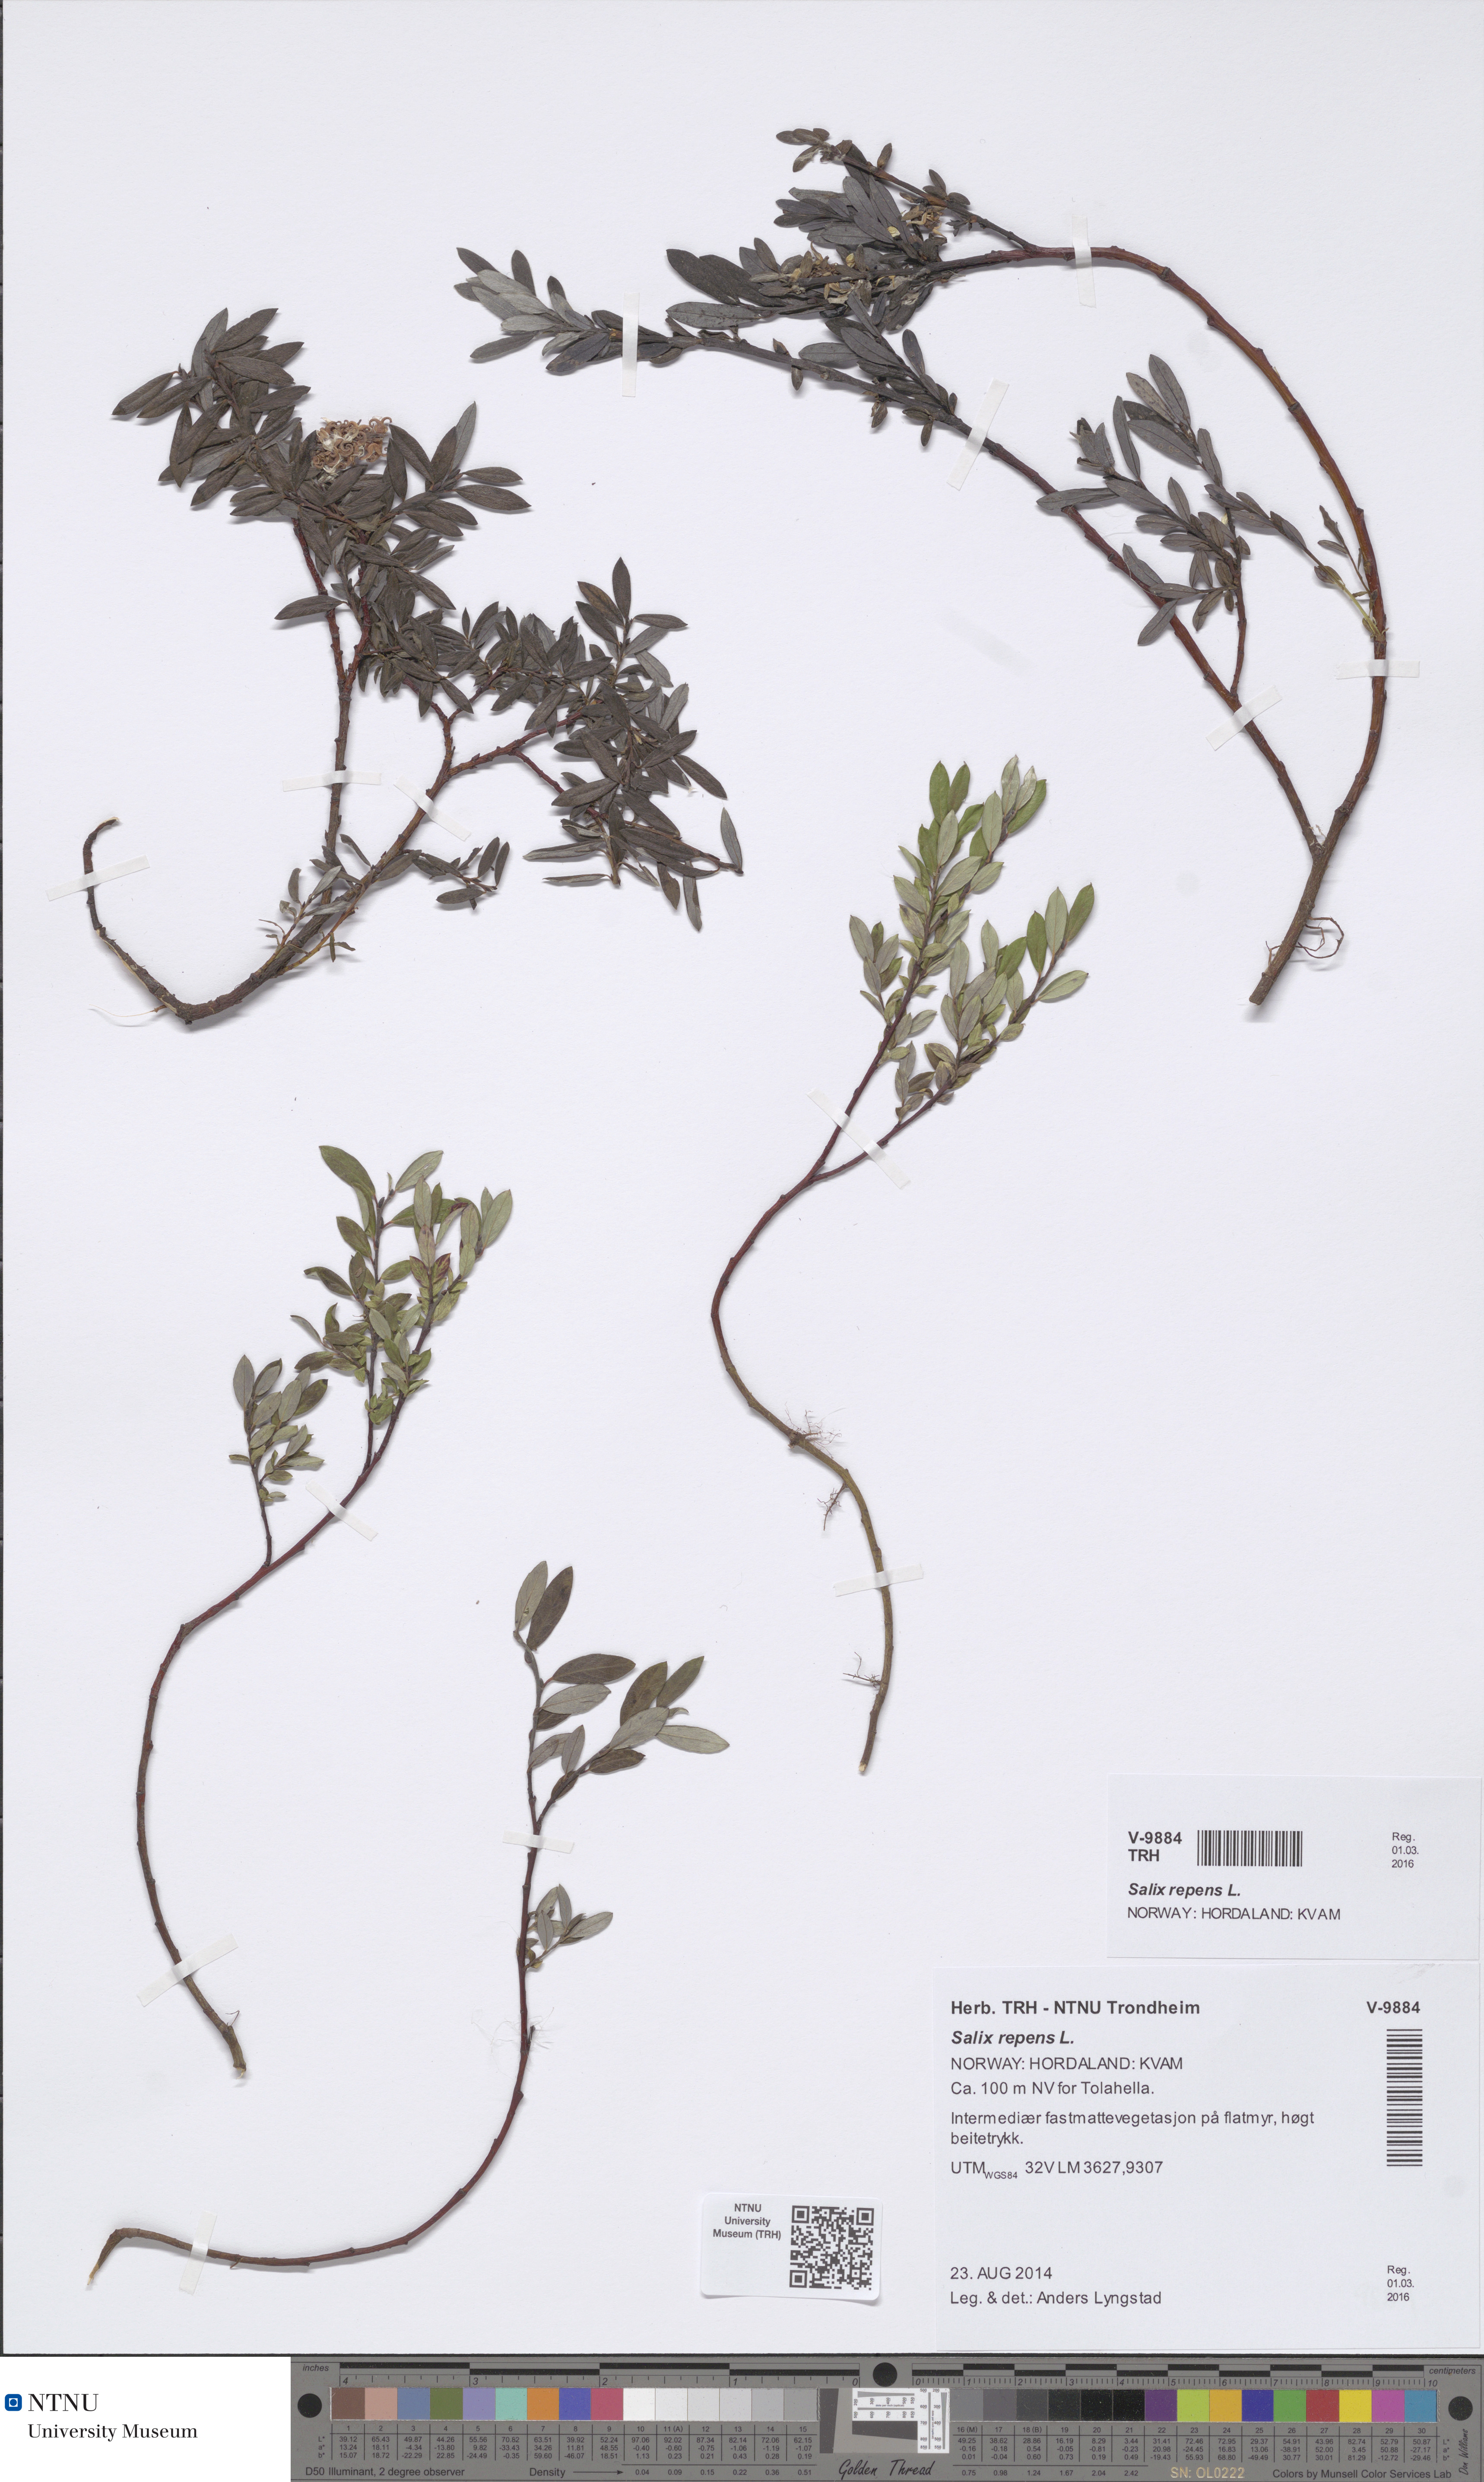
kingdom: Plantae
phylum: Tracheophyta
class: Magnoliopsida
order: Malpighiales
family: Salicaceae
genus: Salix
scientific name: Salix repens
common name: Creeping willow
